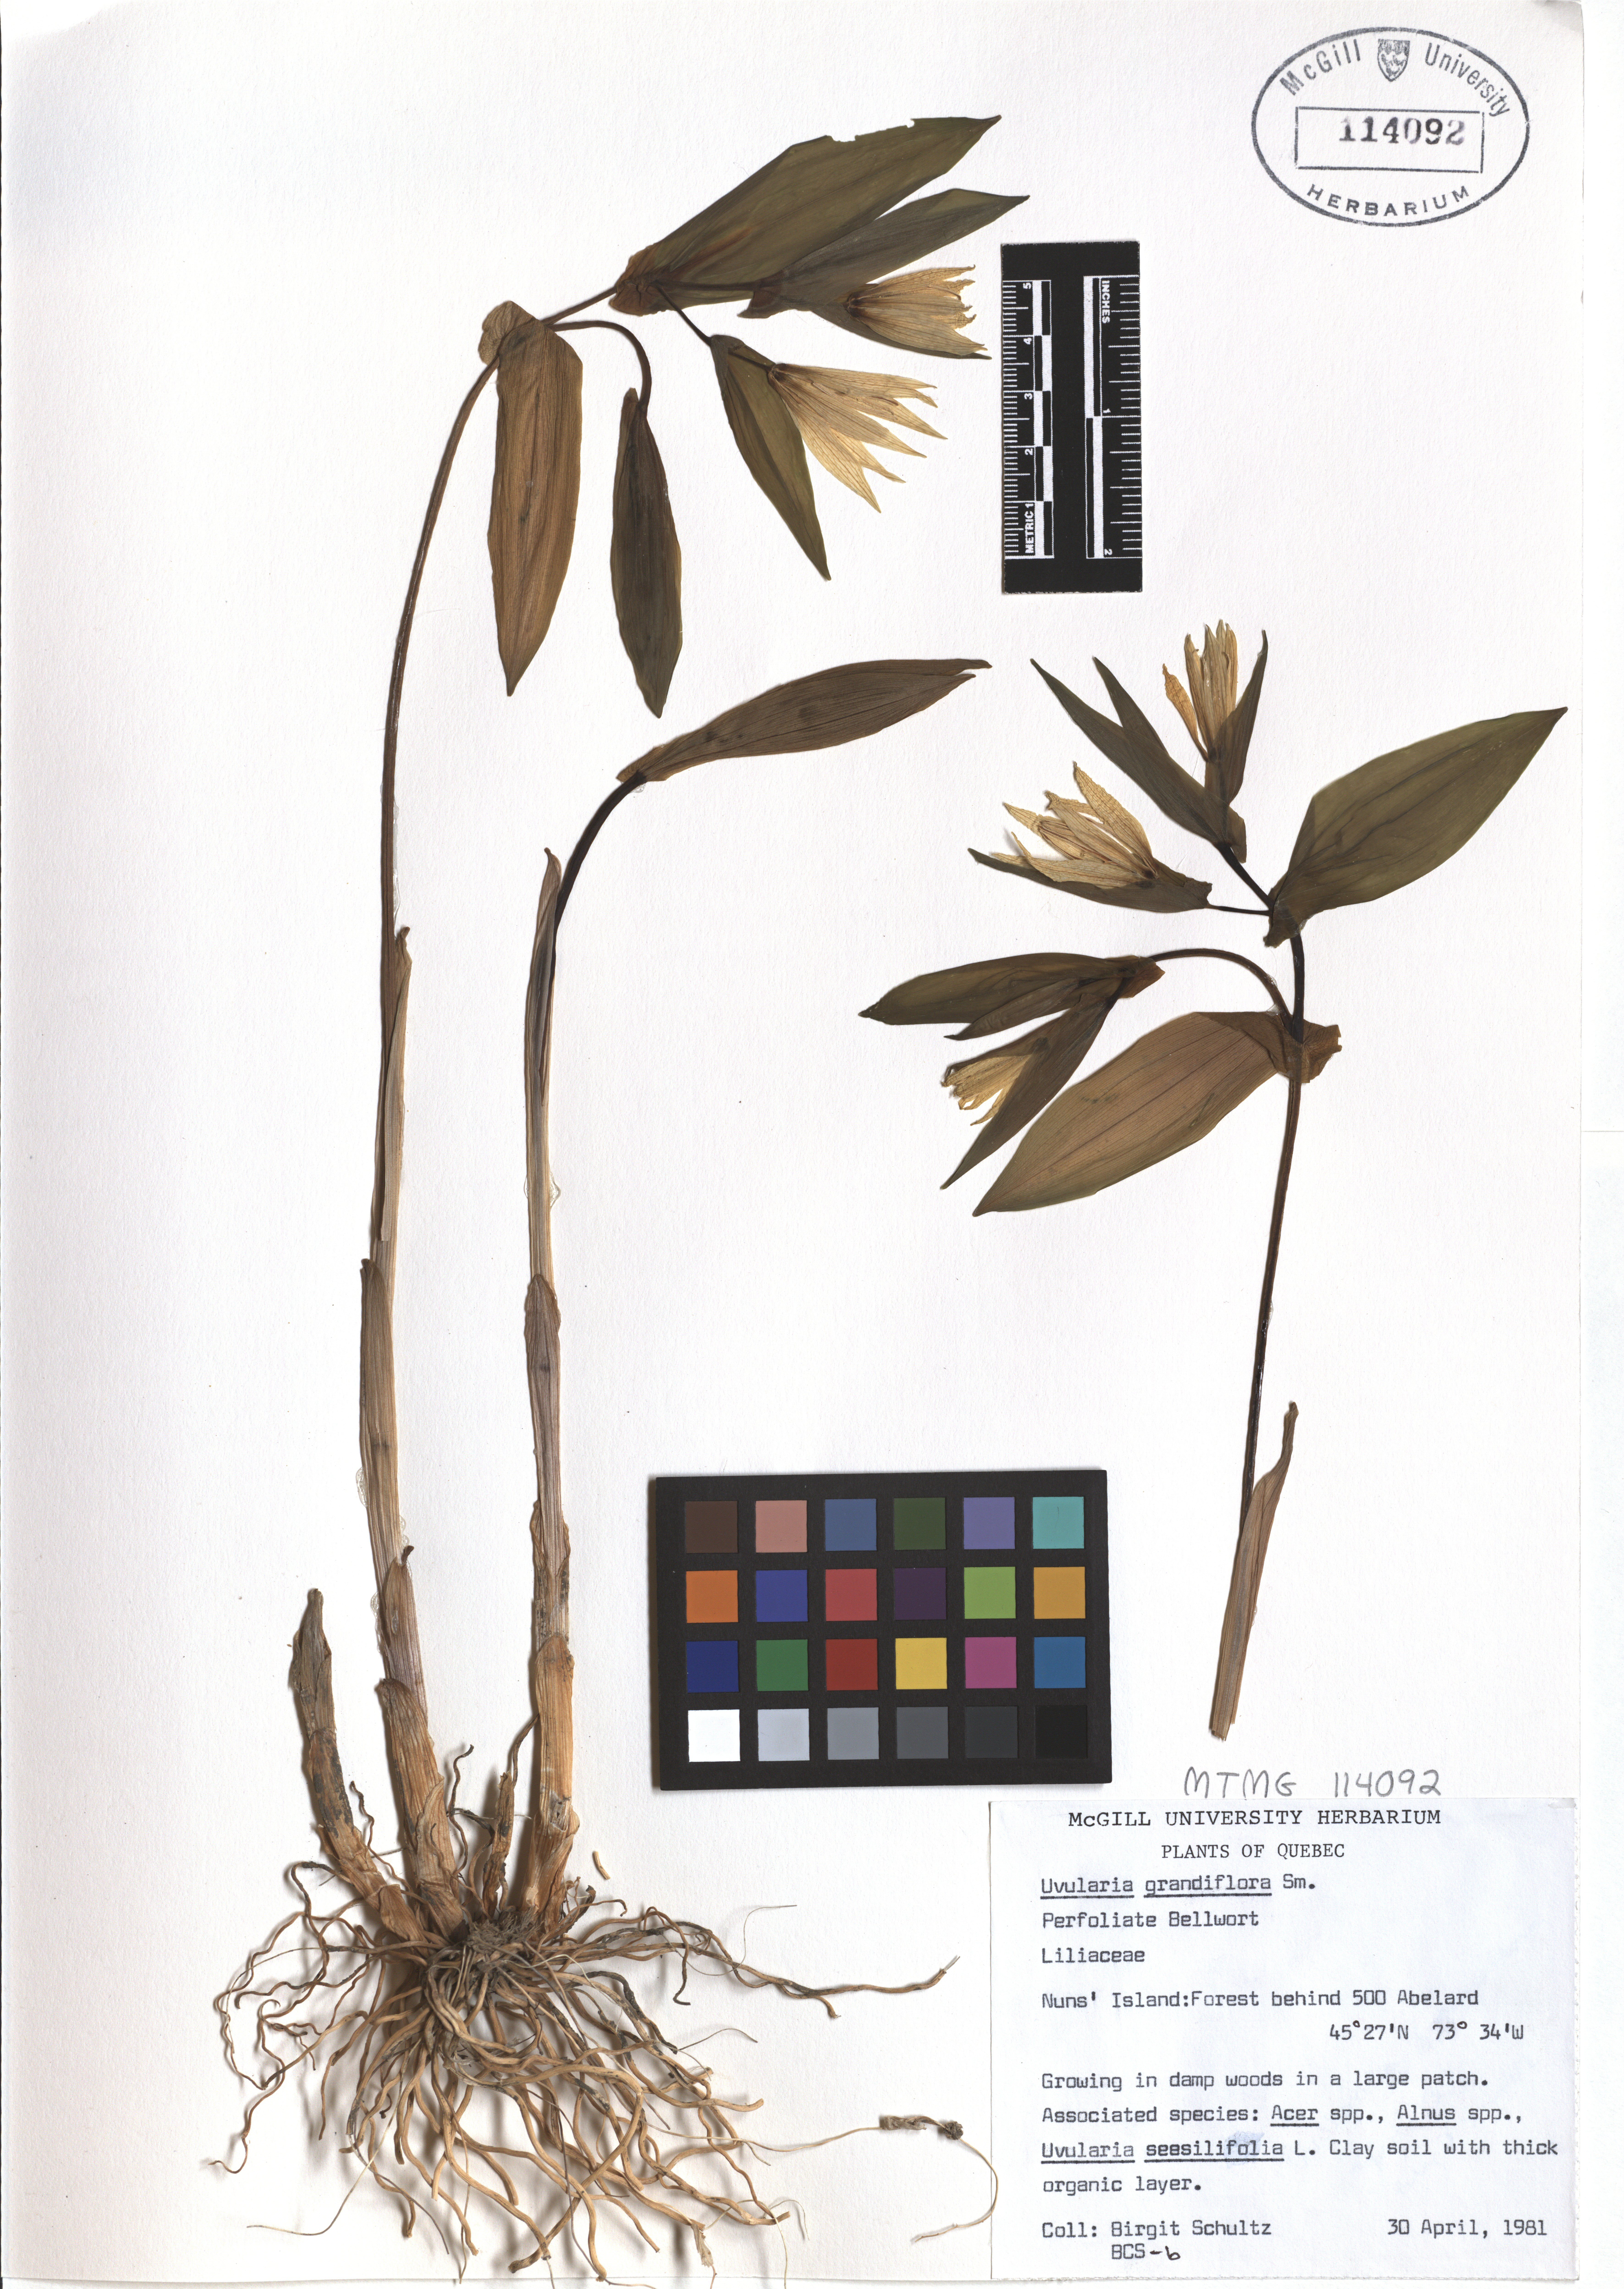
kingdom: Plantae
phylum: Tracheophyta
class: Liliopsida
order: Liliales
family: Colchicaceae
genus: Uvularia
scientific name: Uvularia grandiflora
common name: Bellwort
